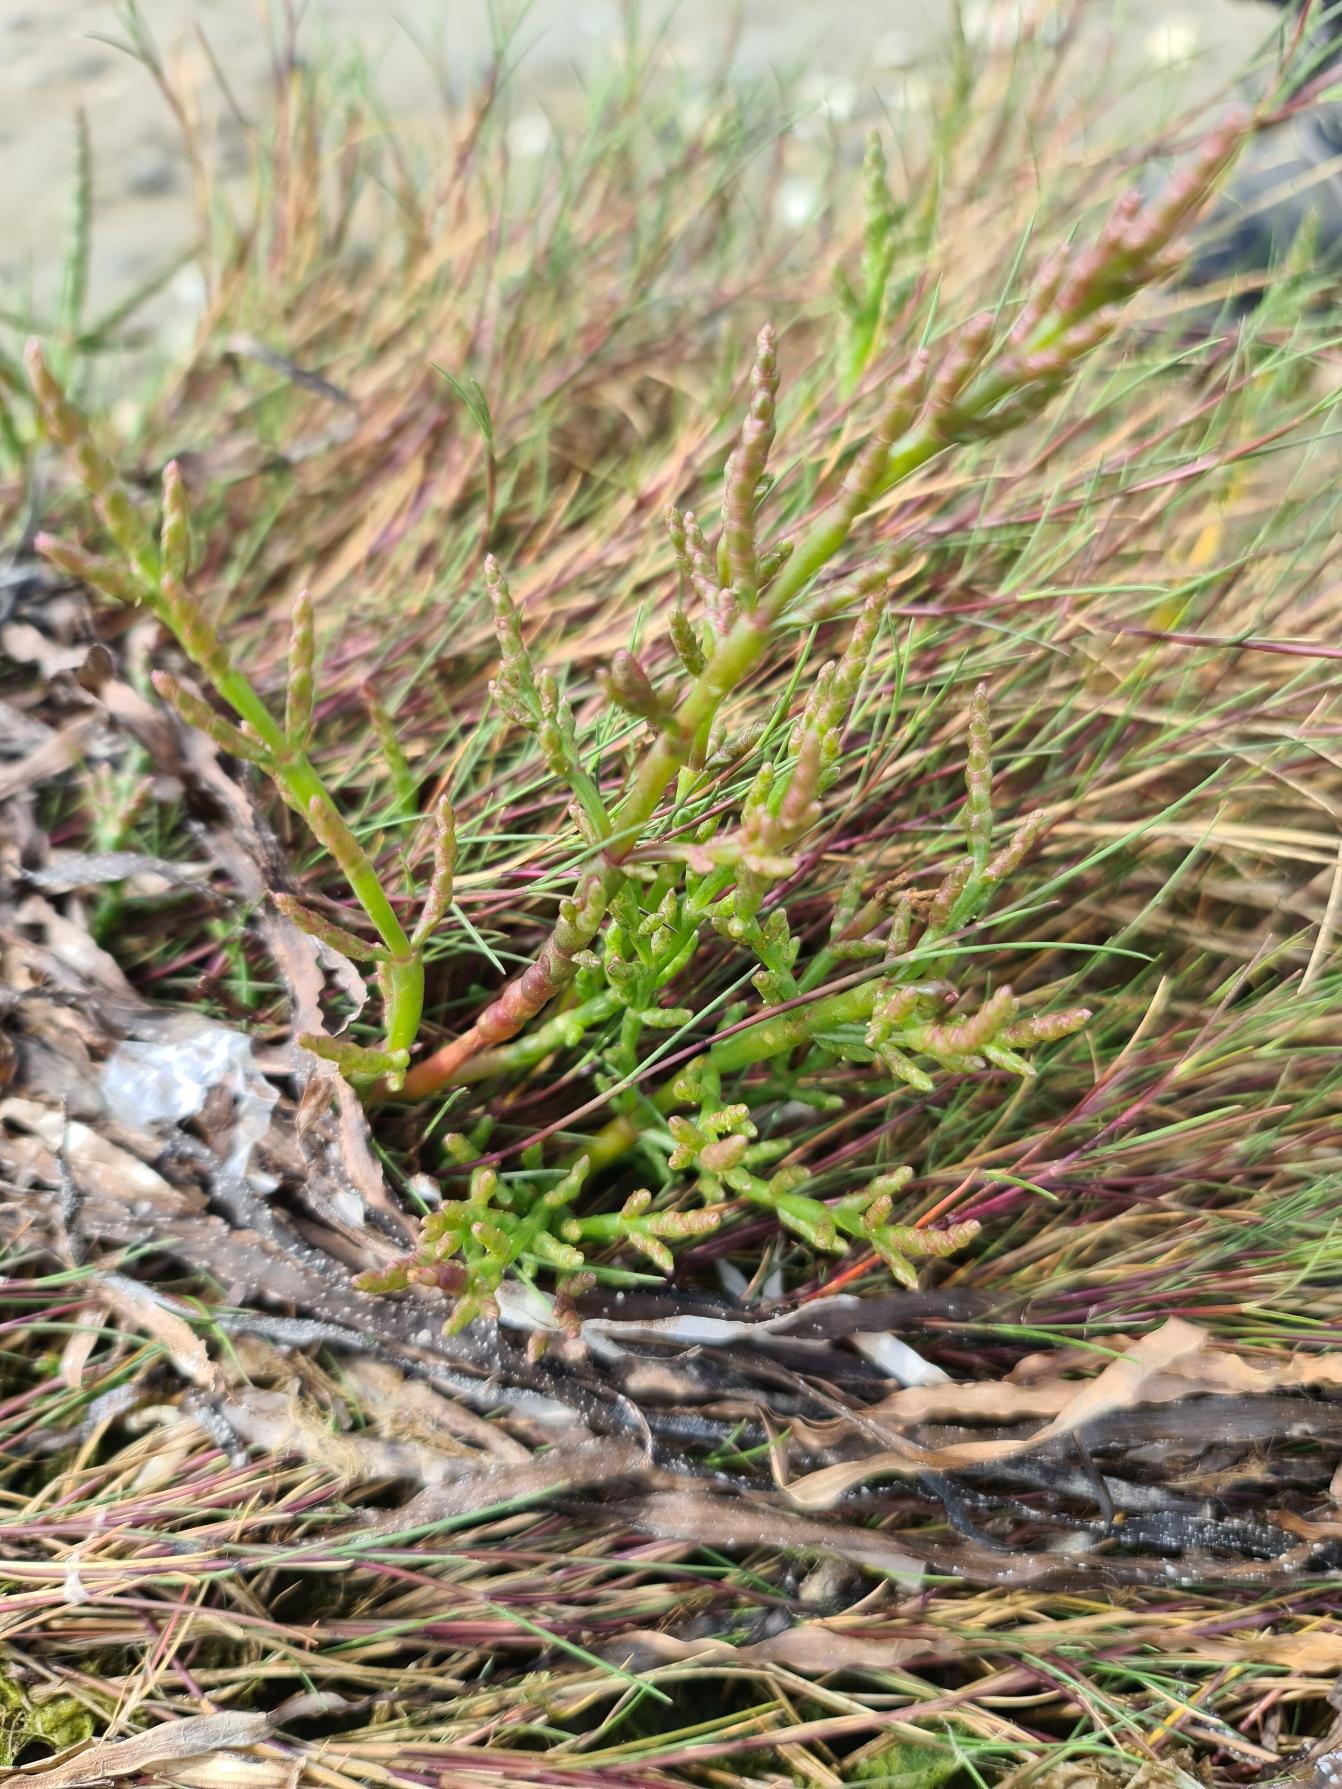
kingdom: Plantae
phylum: Tracheophyta
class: Magnoliopsida
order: Caryophyllales
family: Amaranthaceae
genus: Salicornia
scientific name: Salicornia europaea
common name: Almindelig salturt
